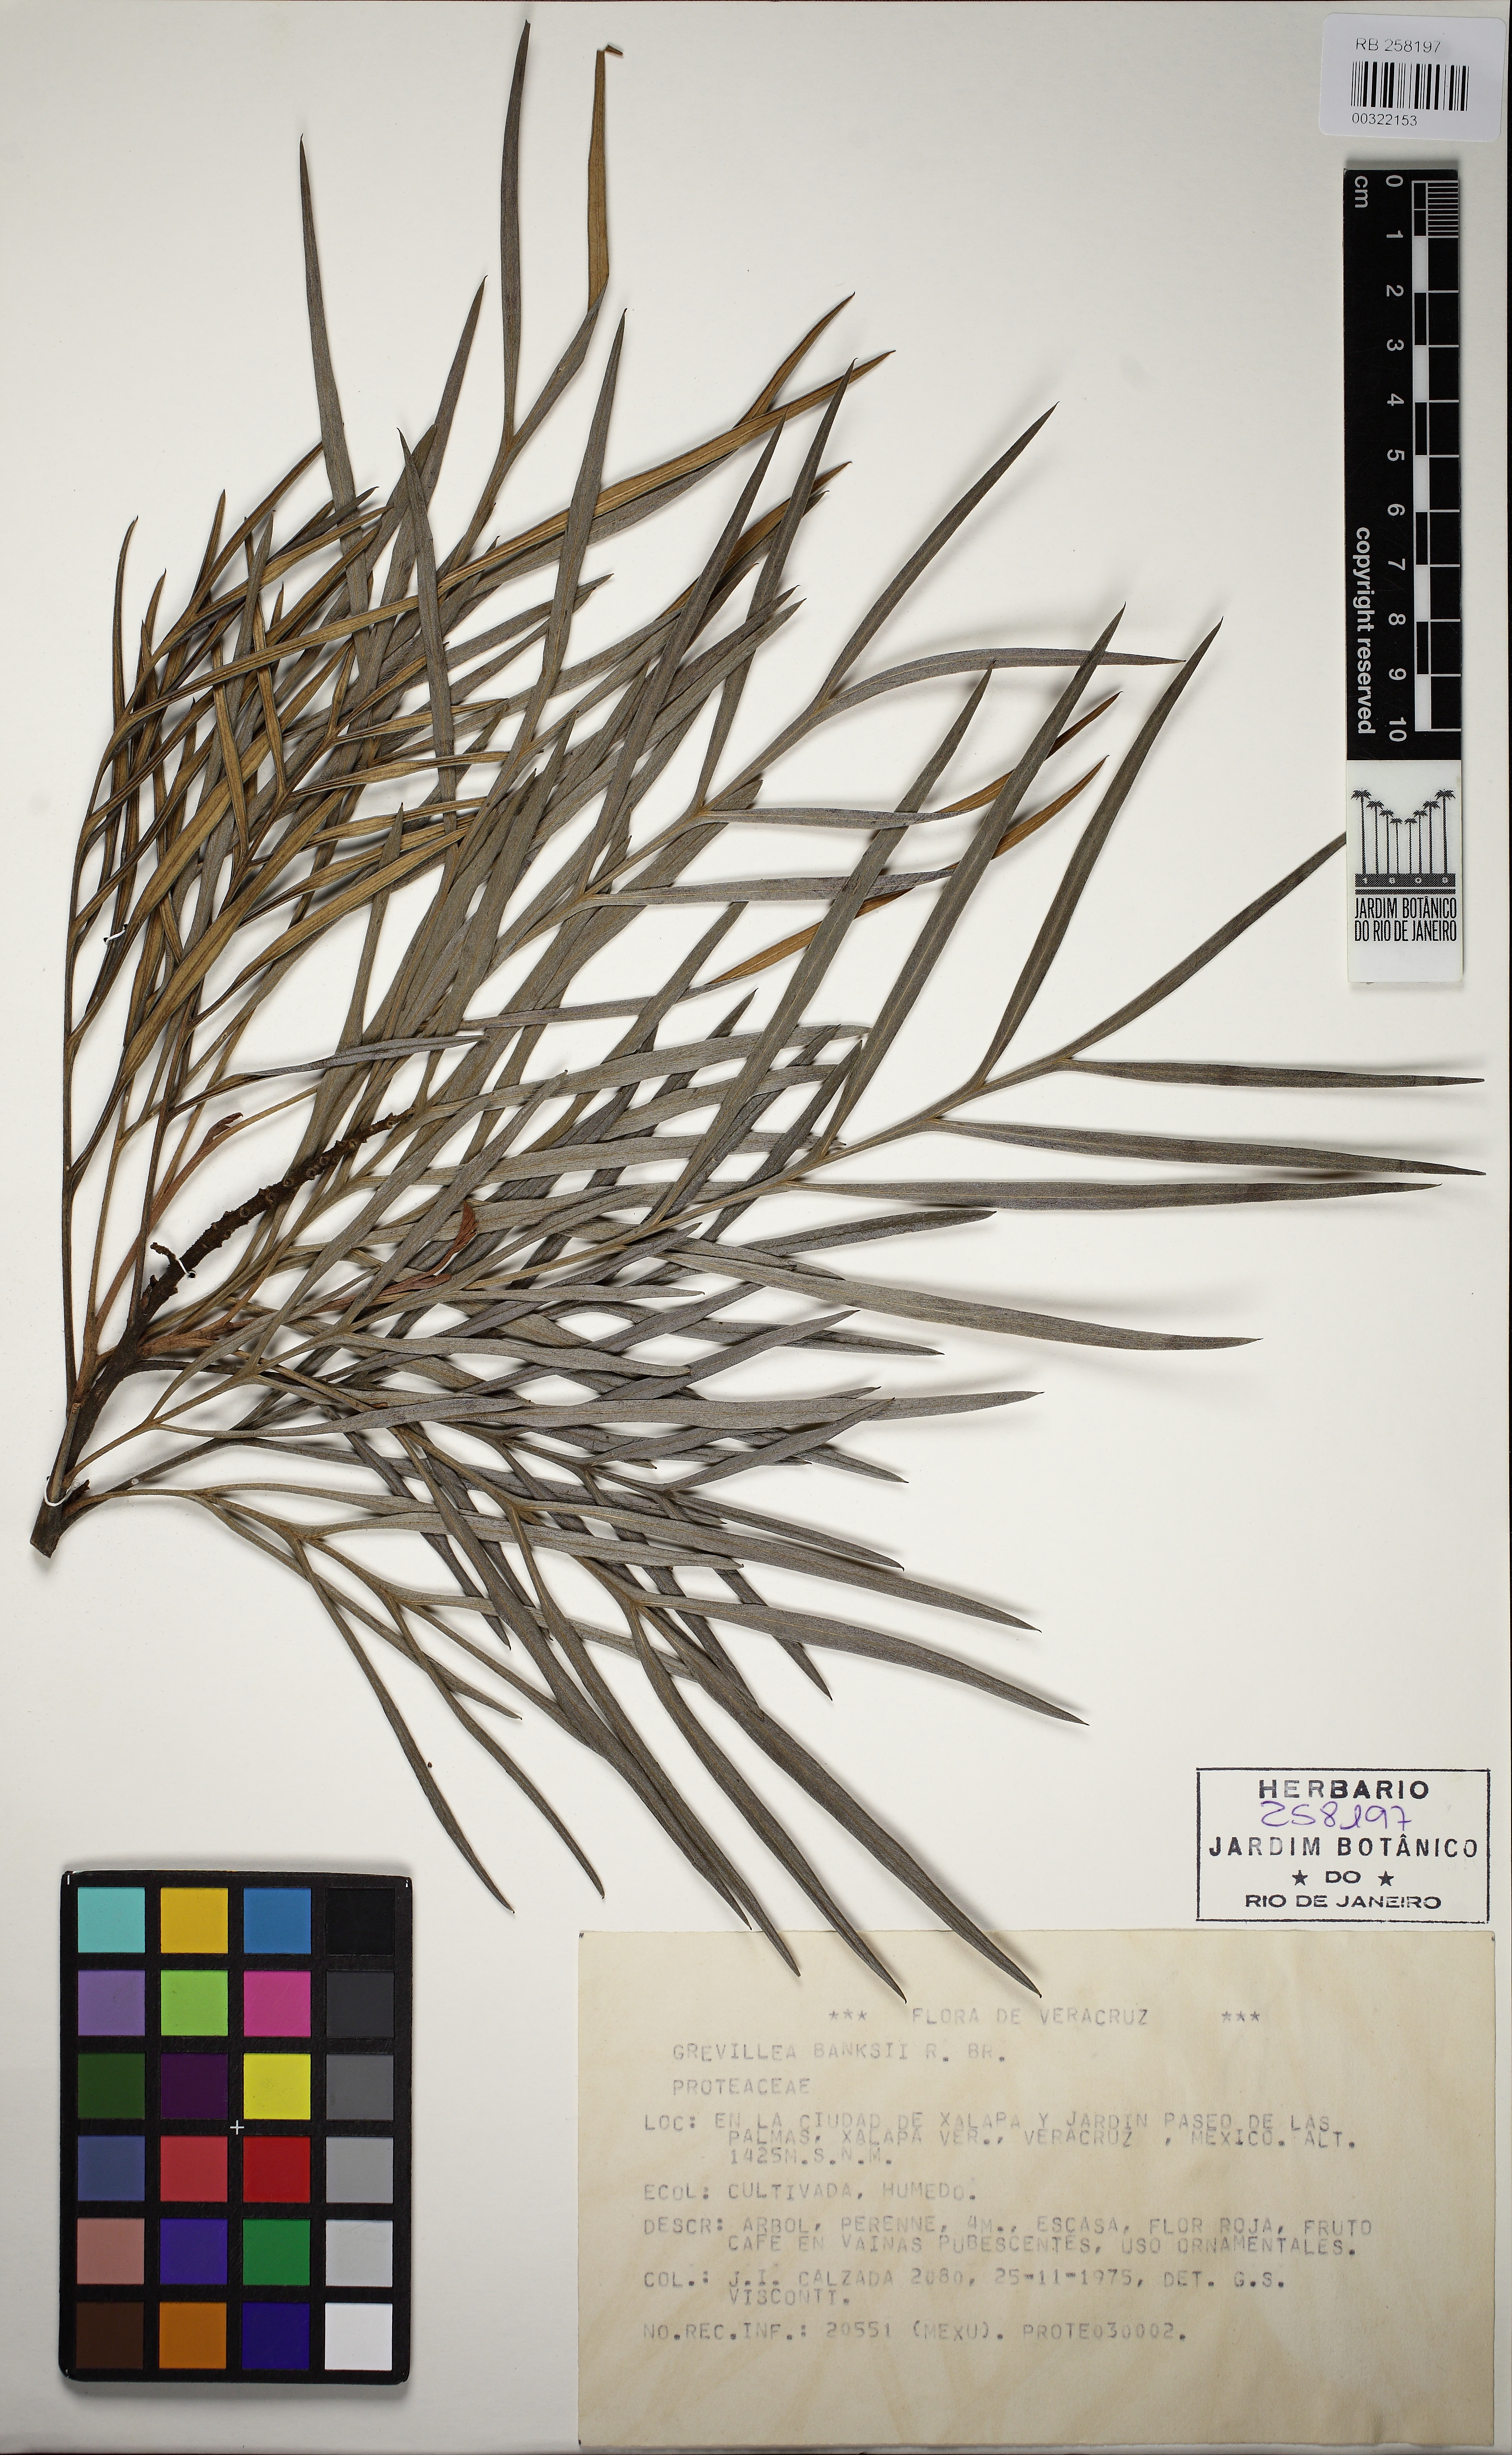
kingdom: Plantae
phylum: Tracheophyta
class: Magnoliopsida
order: Proteales
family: Proteaceae
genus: Grevillea
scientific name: Grevillea banksii
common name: Kahili flower
